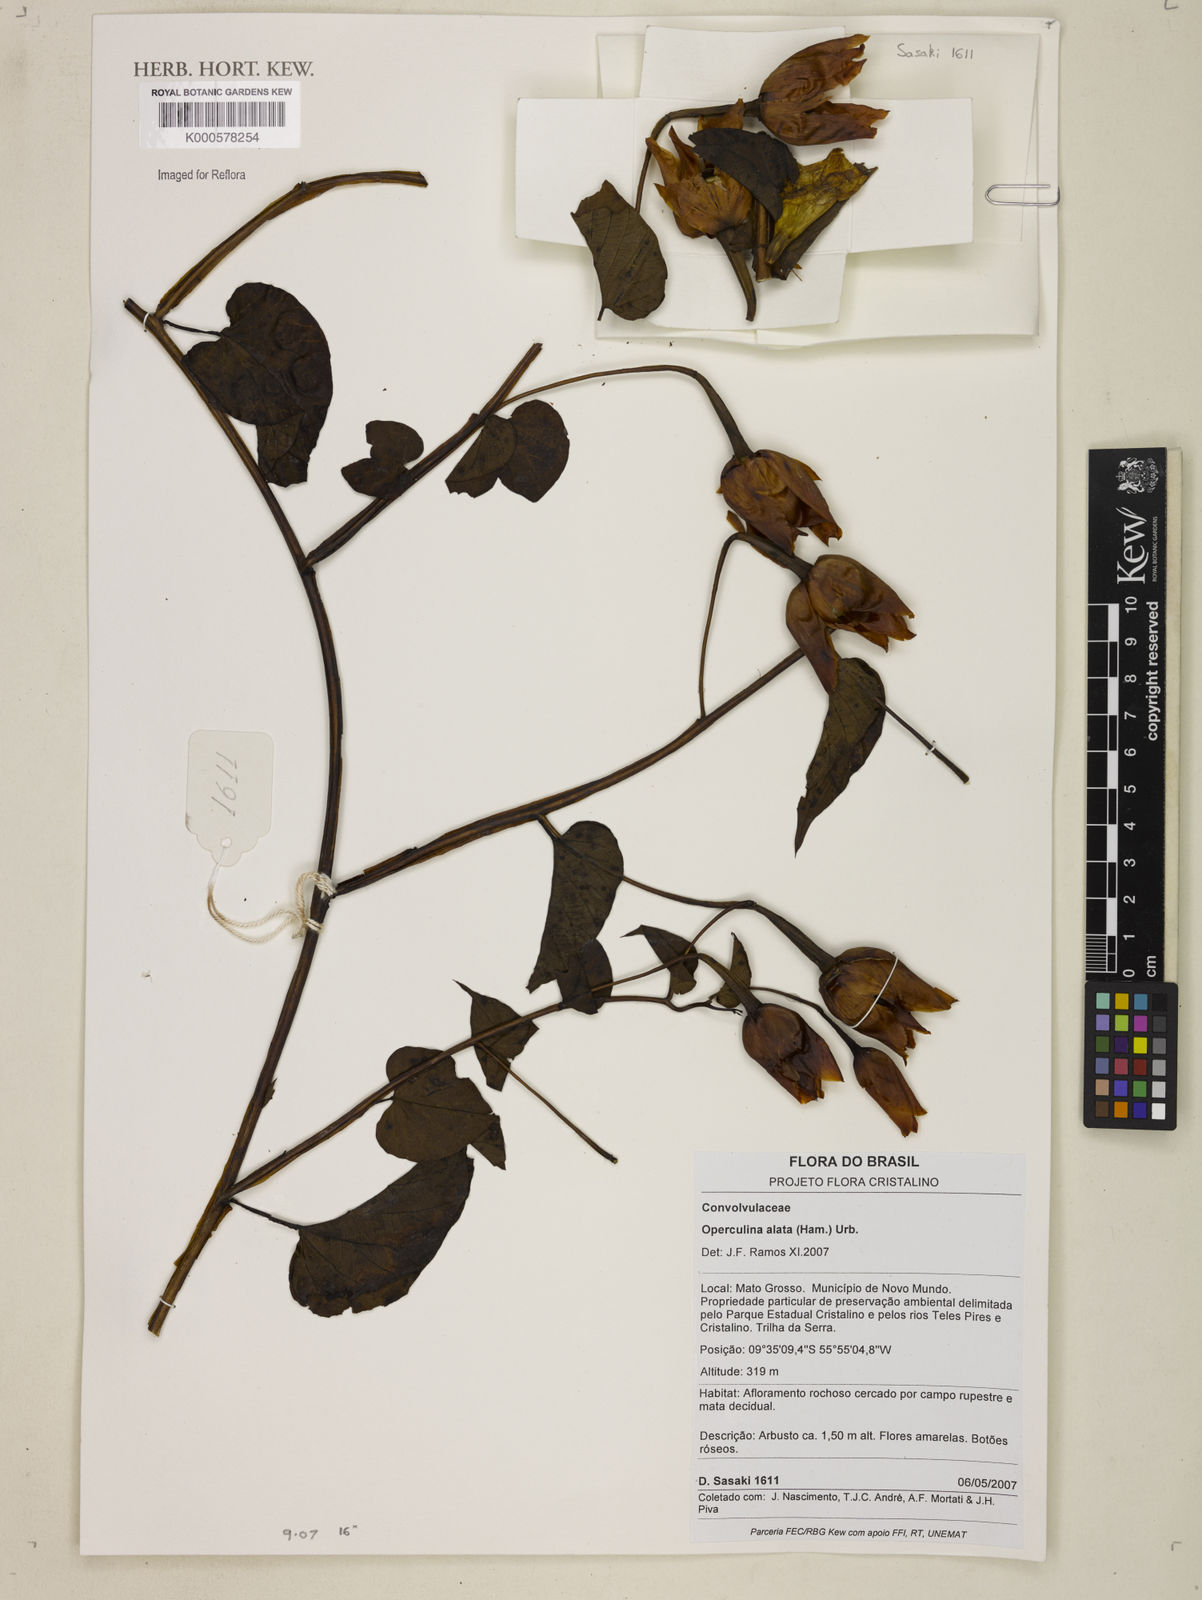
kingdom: Plantae
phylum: Tracheophyta
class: Magnoliopsida
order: Solanales
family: Convolvulaceae
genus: Operculina
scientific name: Operculina hamiltonii
